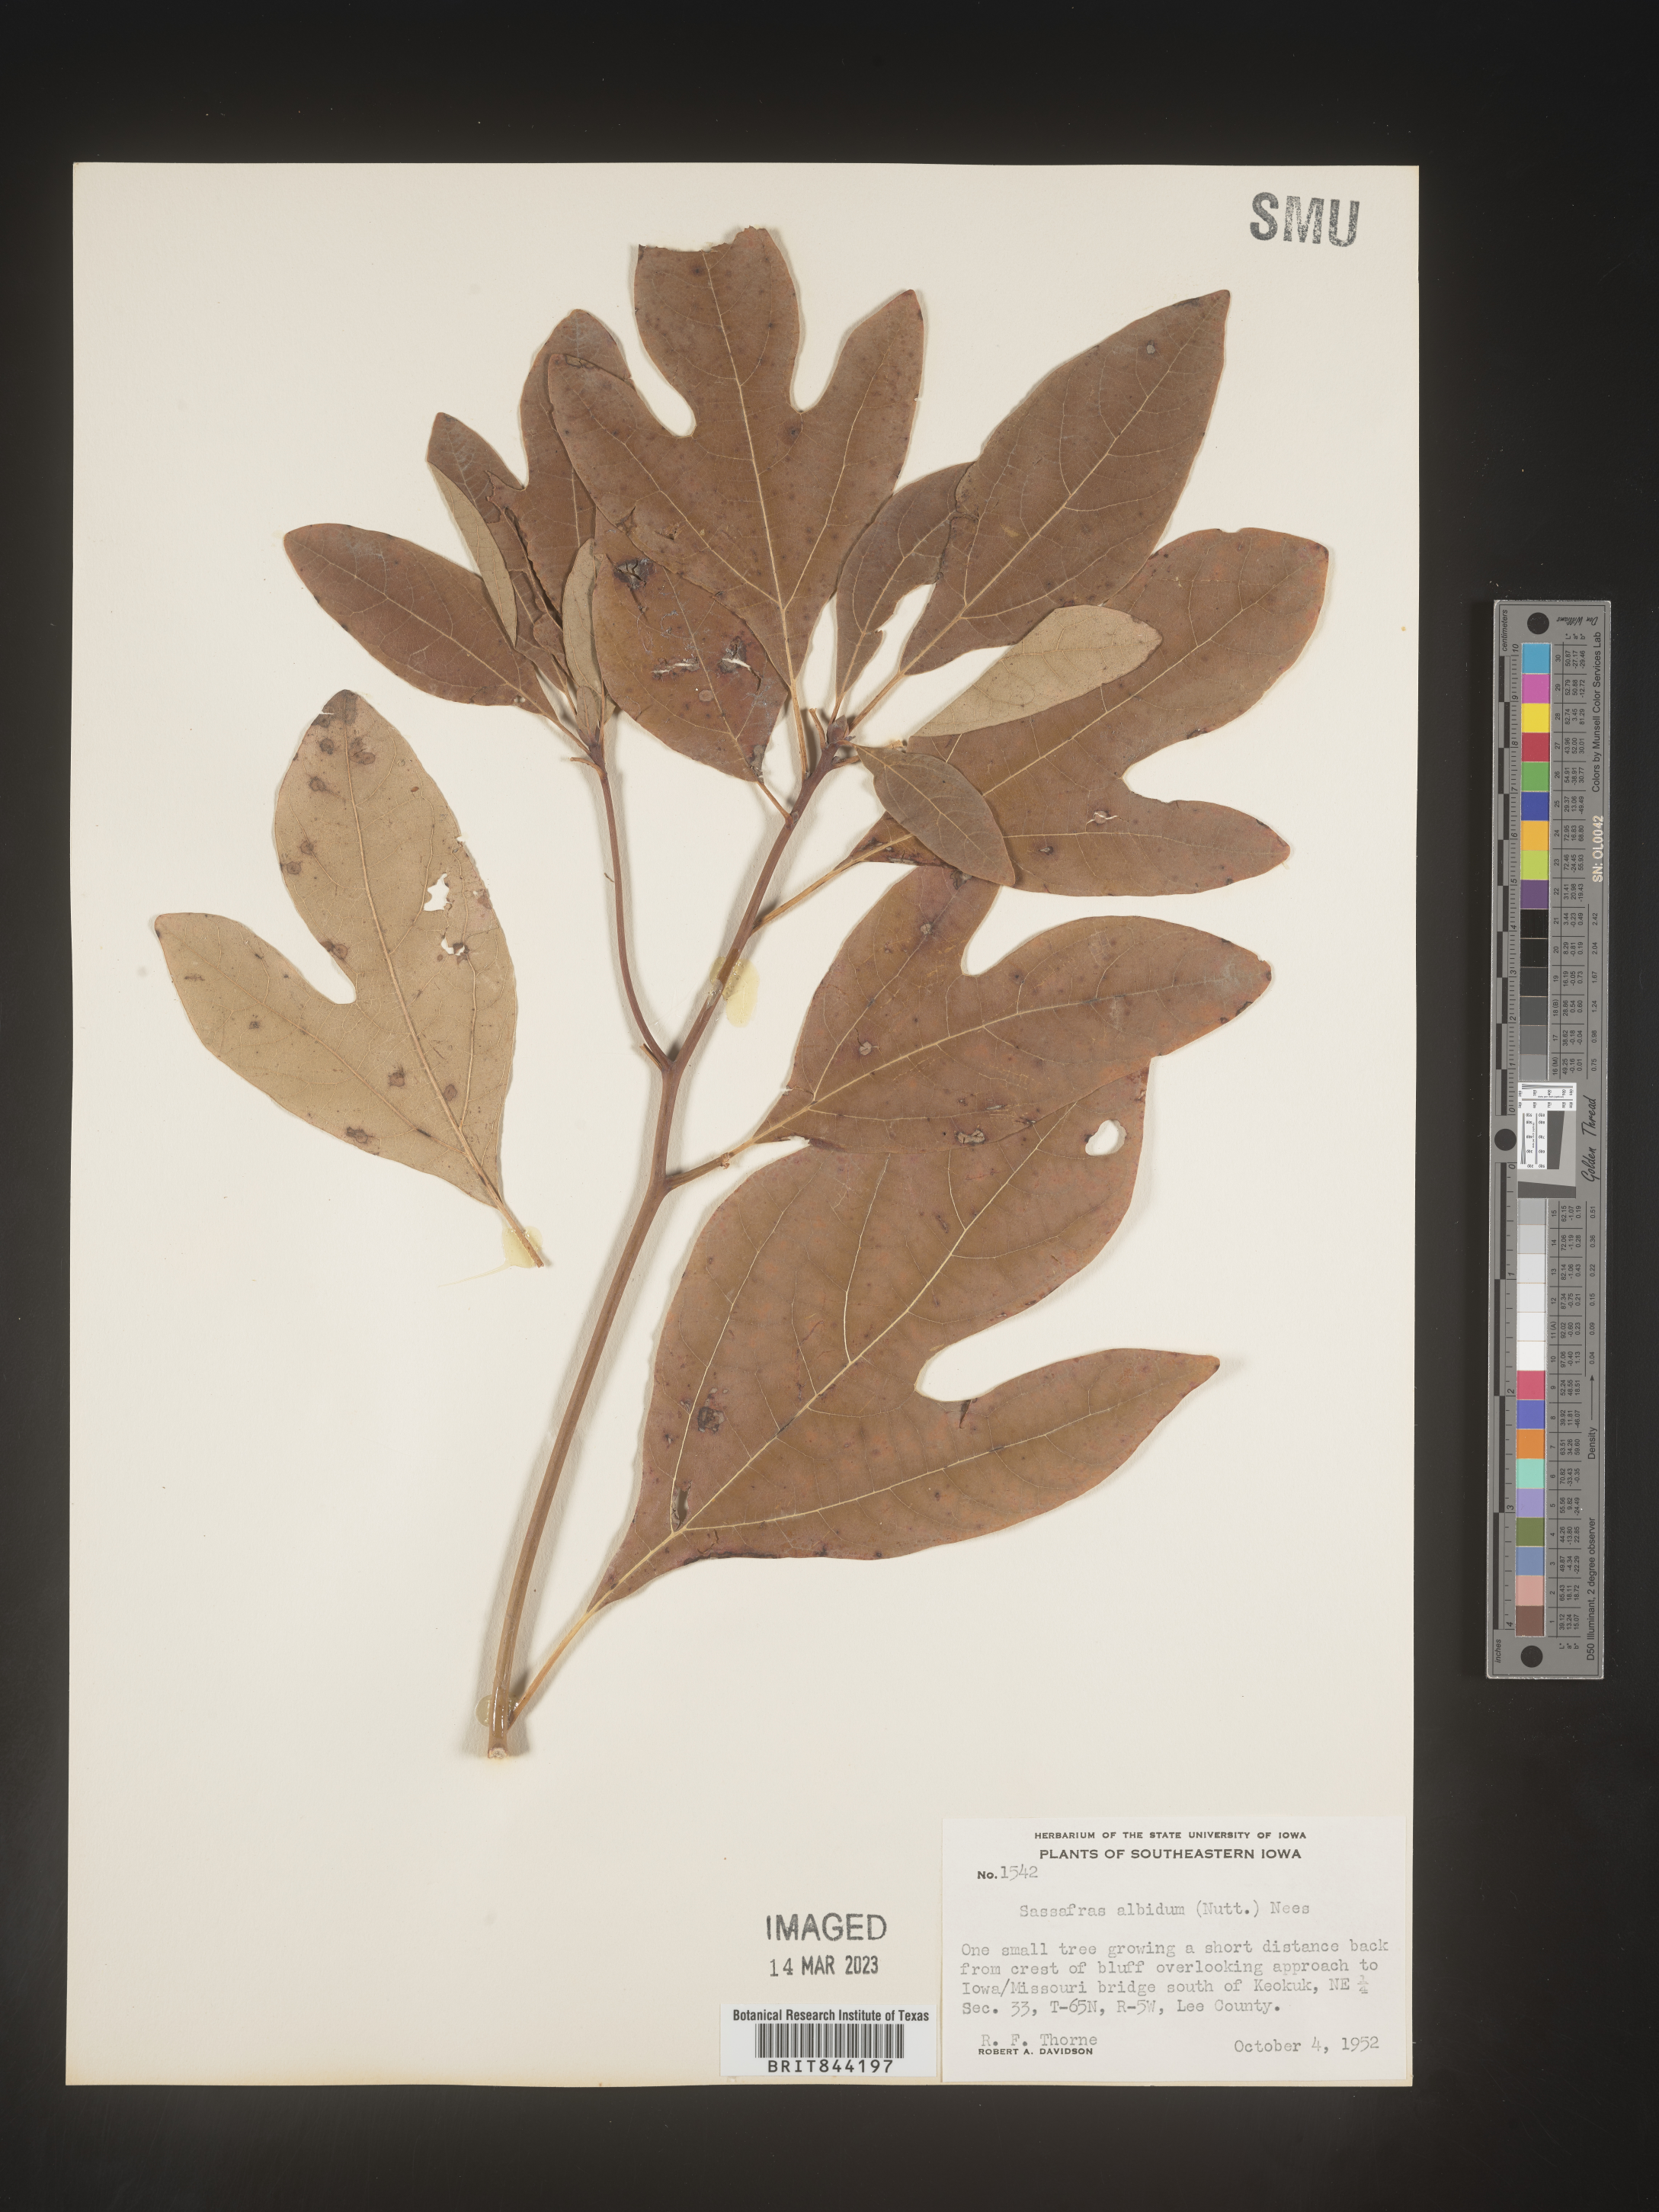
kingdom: Plantae
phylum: Tracheophyta
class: Magnoliopsida
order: Laurales
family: Lauraceae
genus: Sassafras
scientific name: Sassafras albidum
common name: Sassafras
